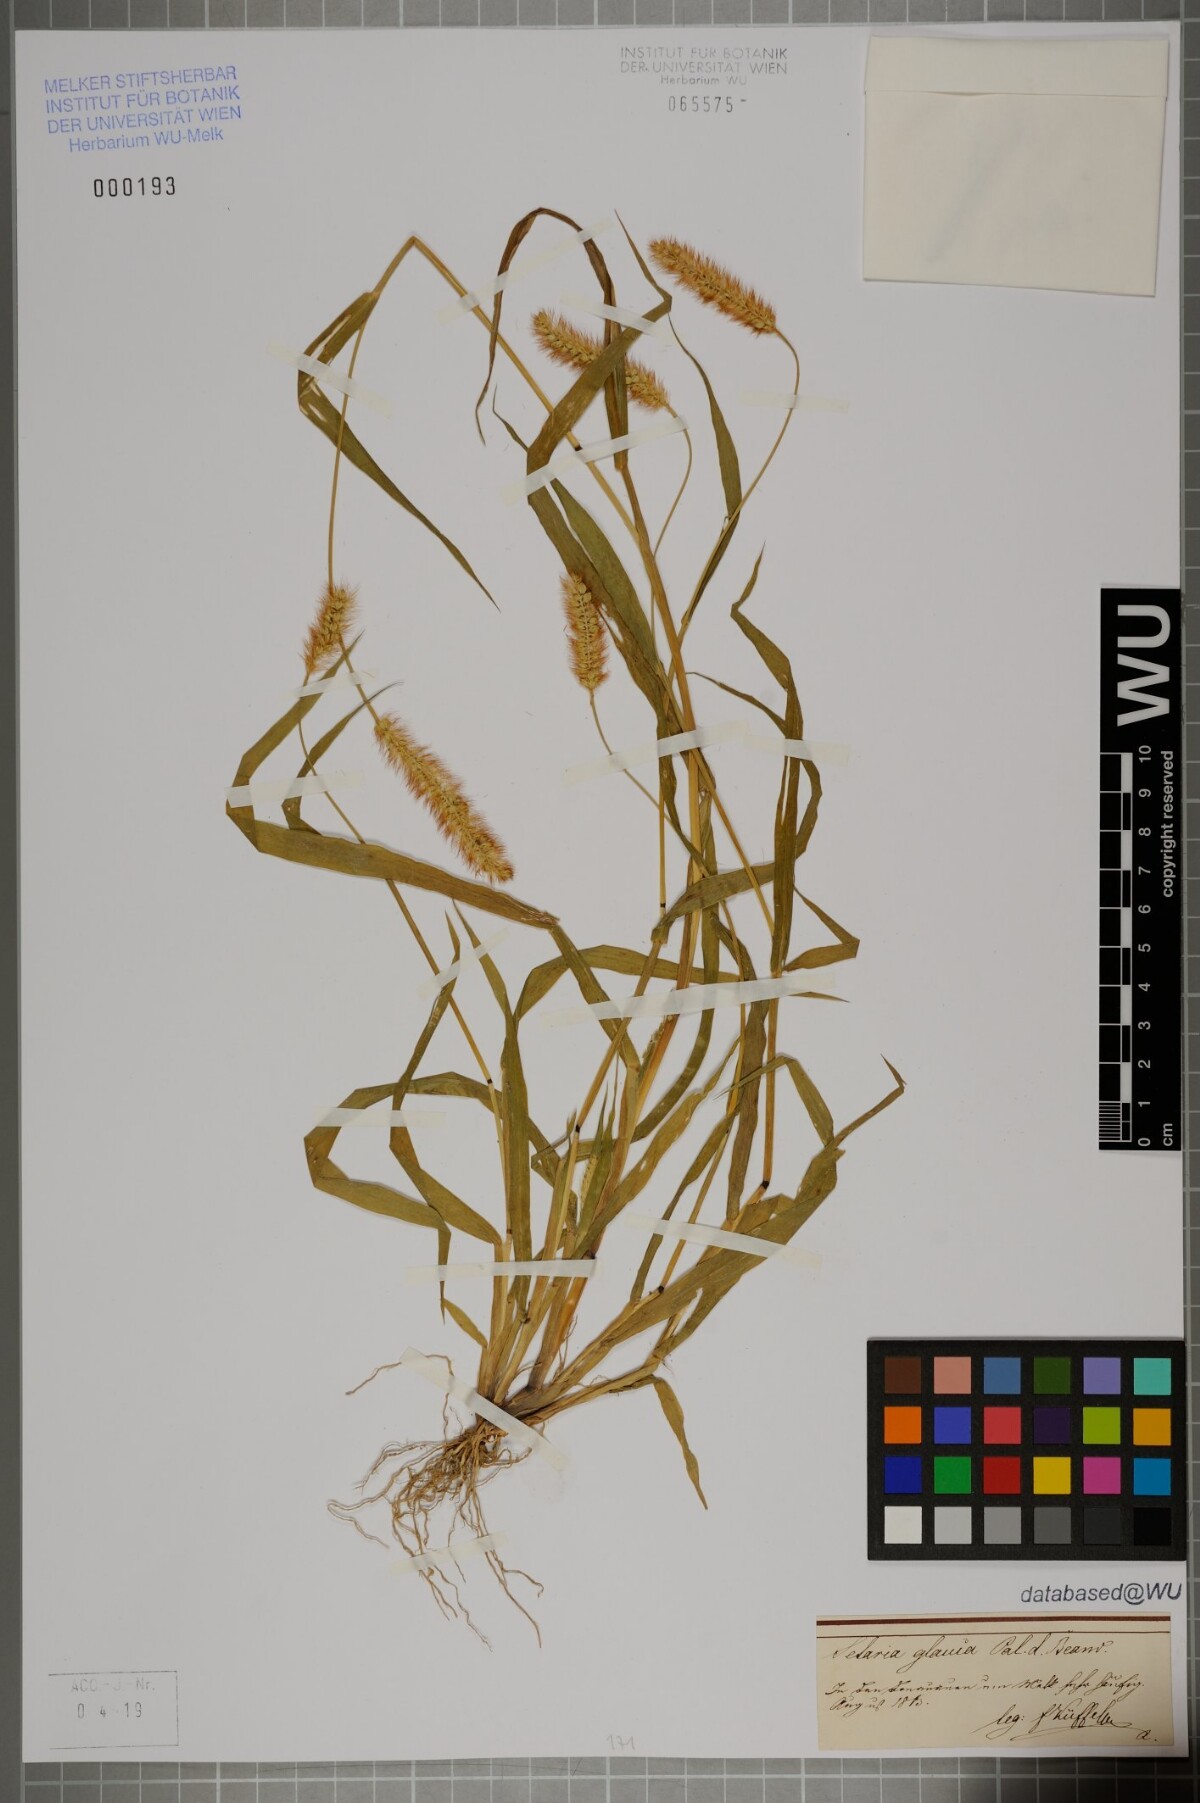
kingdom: Plantae
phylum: Tracheophyta
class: Liliopsida
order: Poales
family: Poaceae
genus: Cenchrus
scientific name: Cenchrus americanus
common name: Pearl millet
